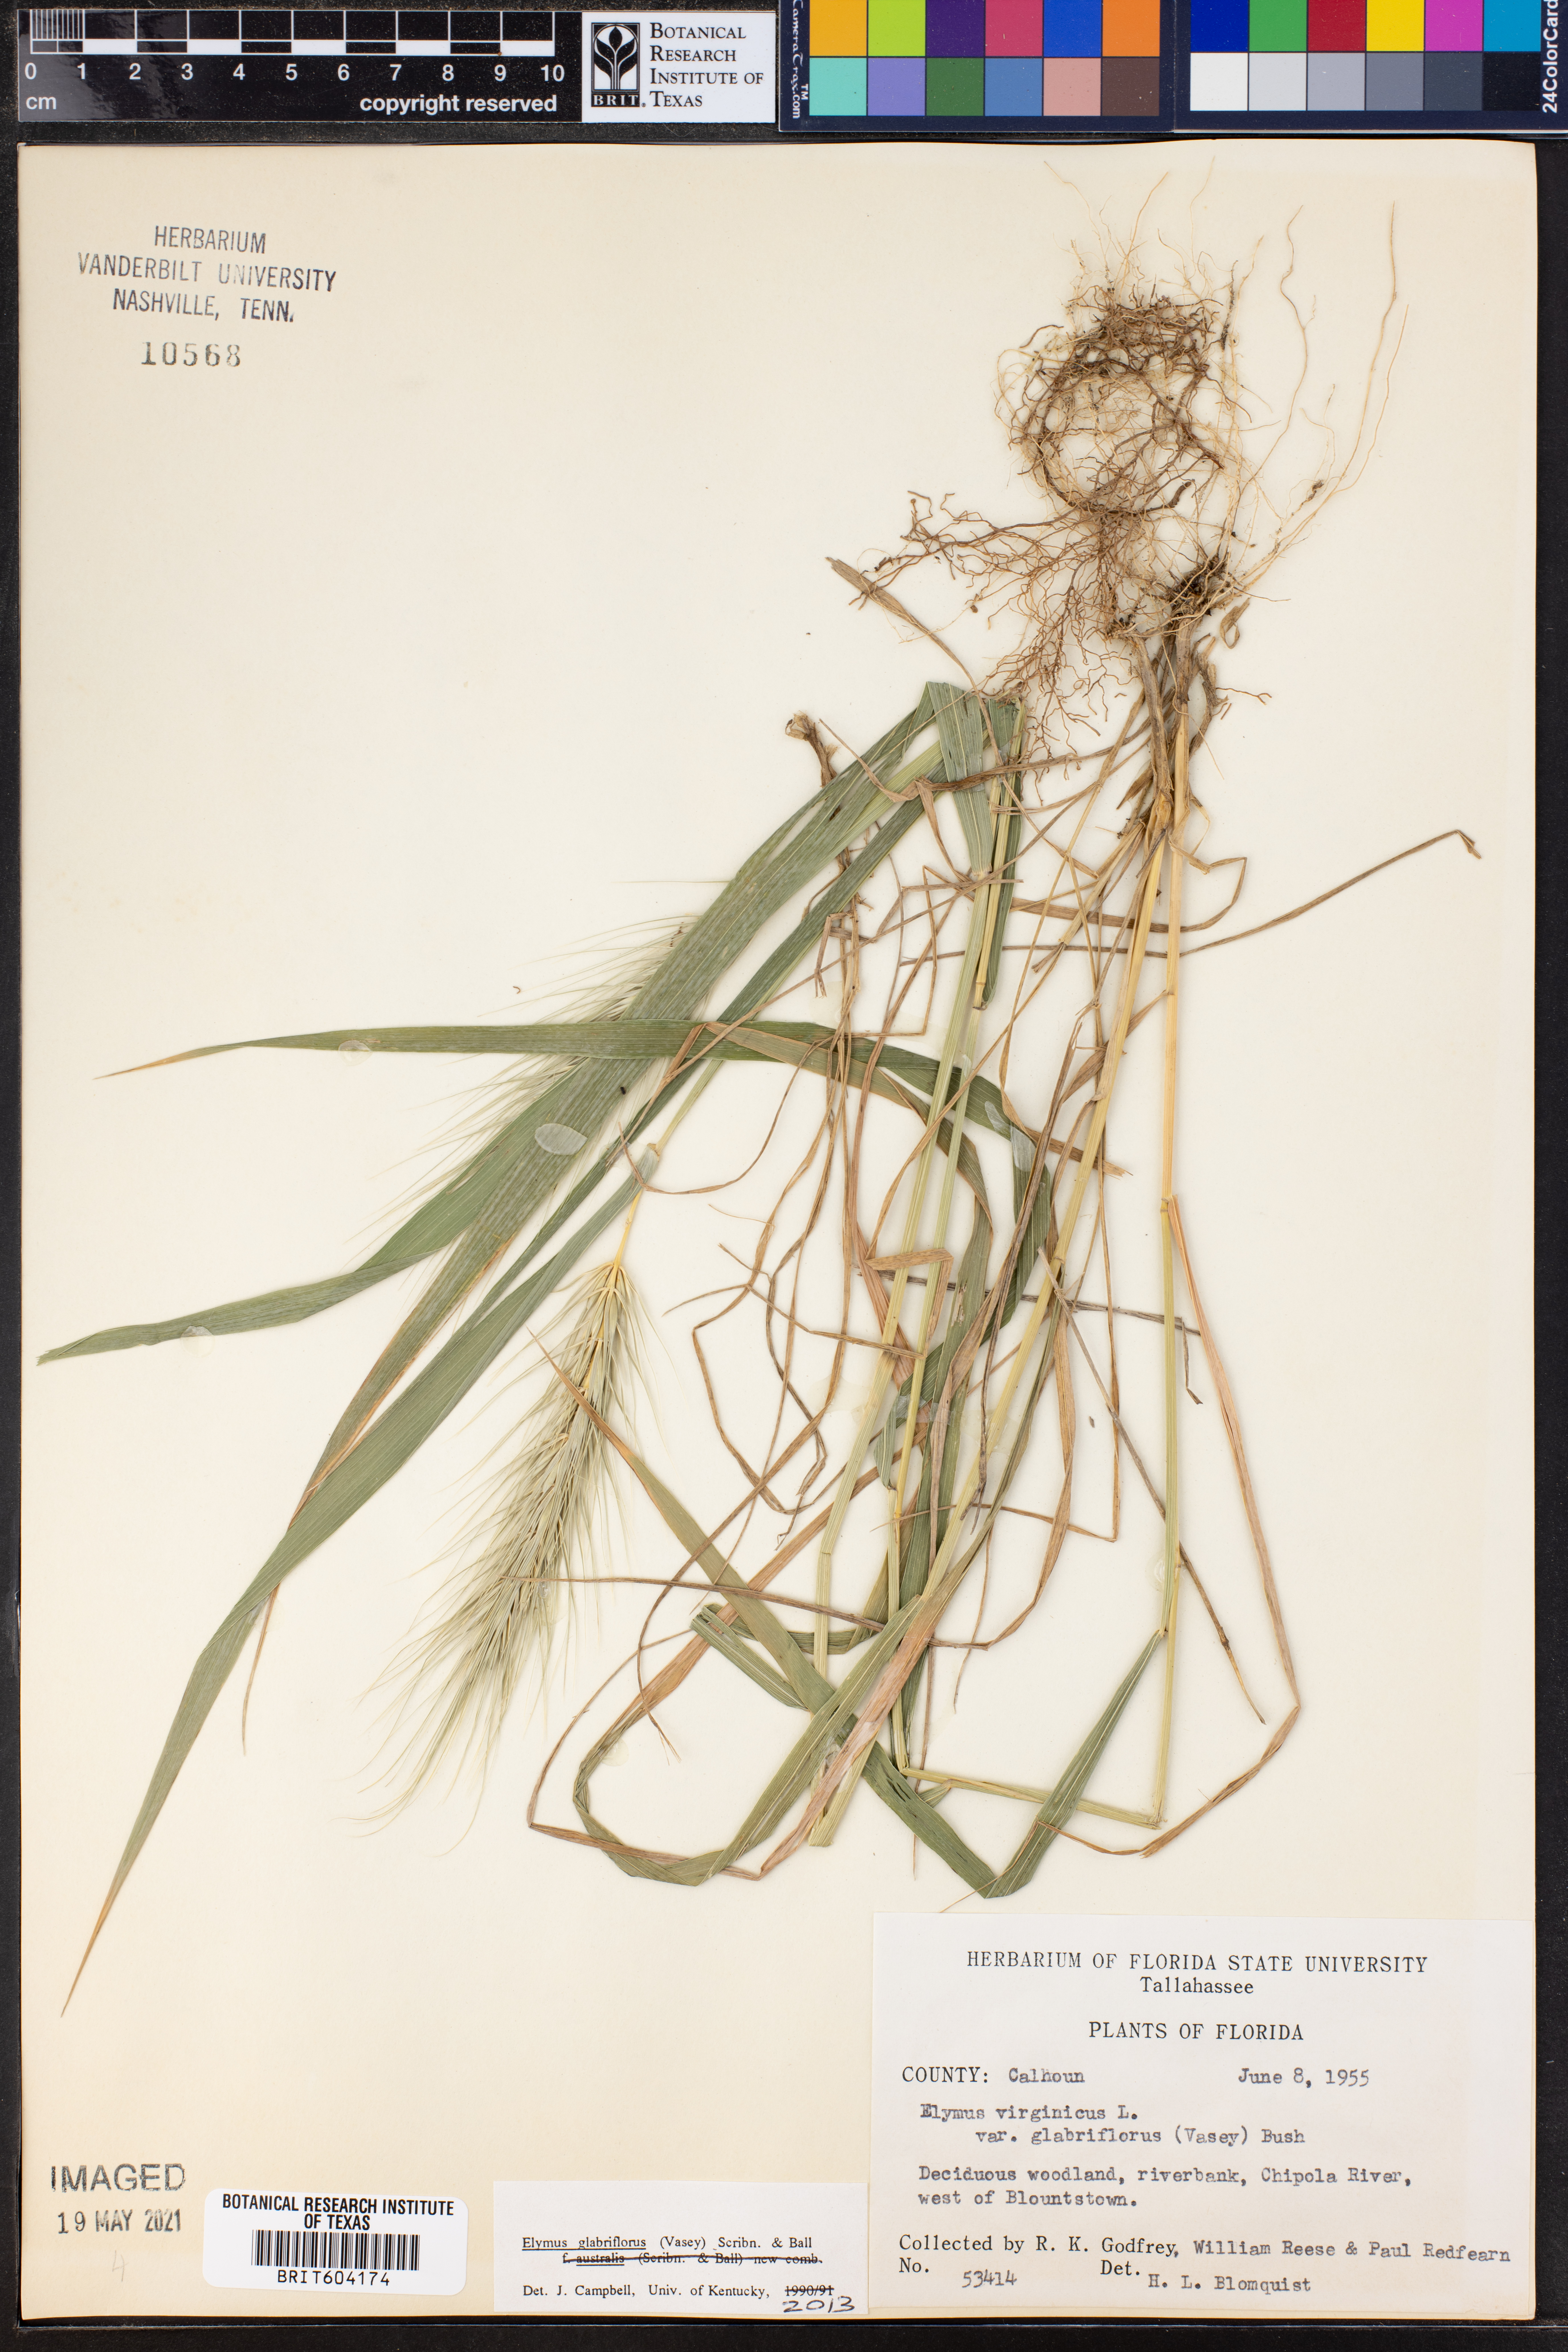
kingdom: Plantae
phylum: Tracheophyta
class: Liliopsida
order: Poales
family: Poaceae
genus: Elymus
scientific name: Elymus virginicus
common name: Common eastern wildrye
